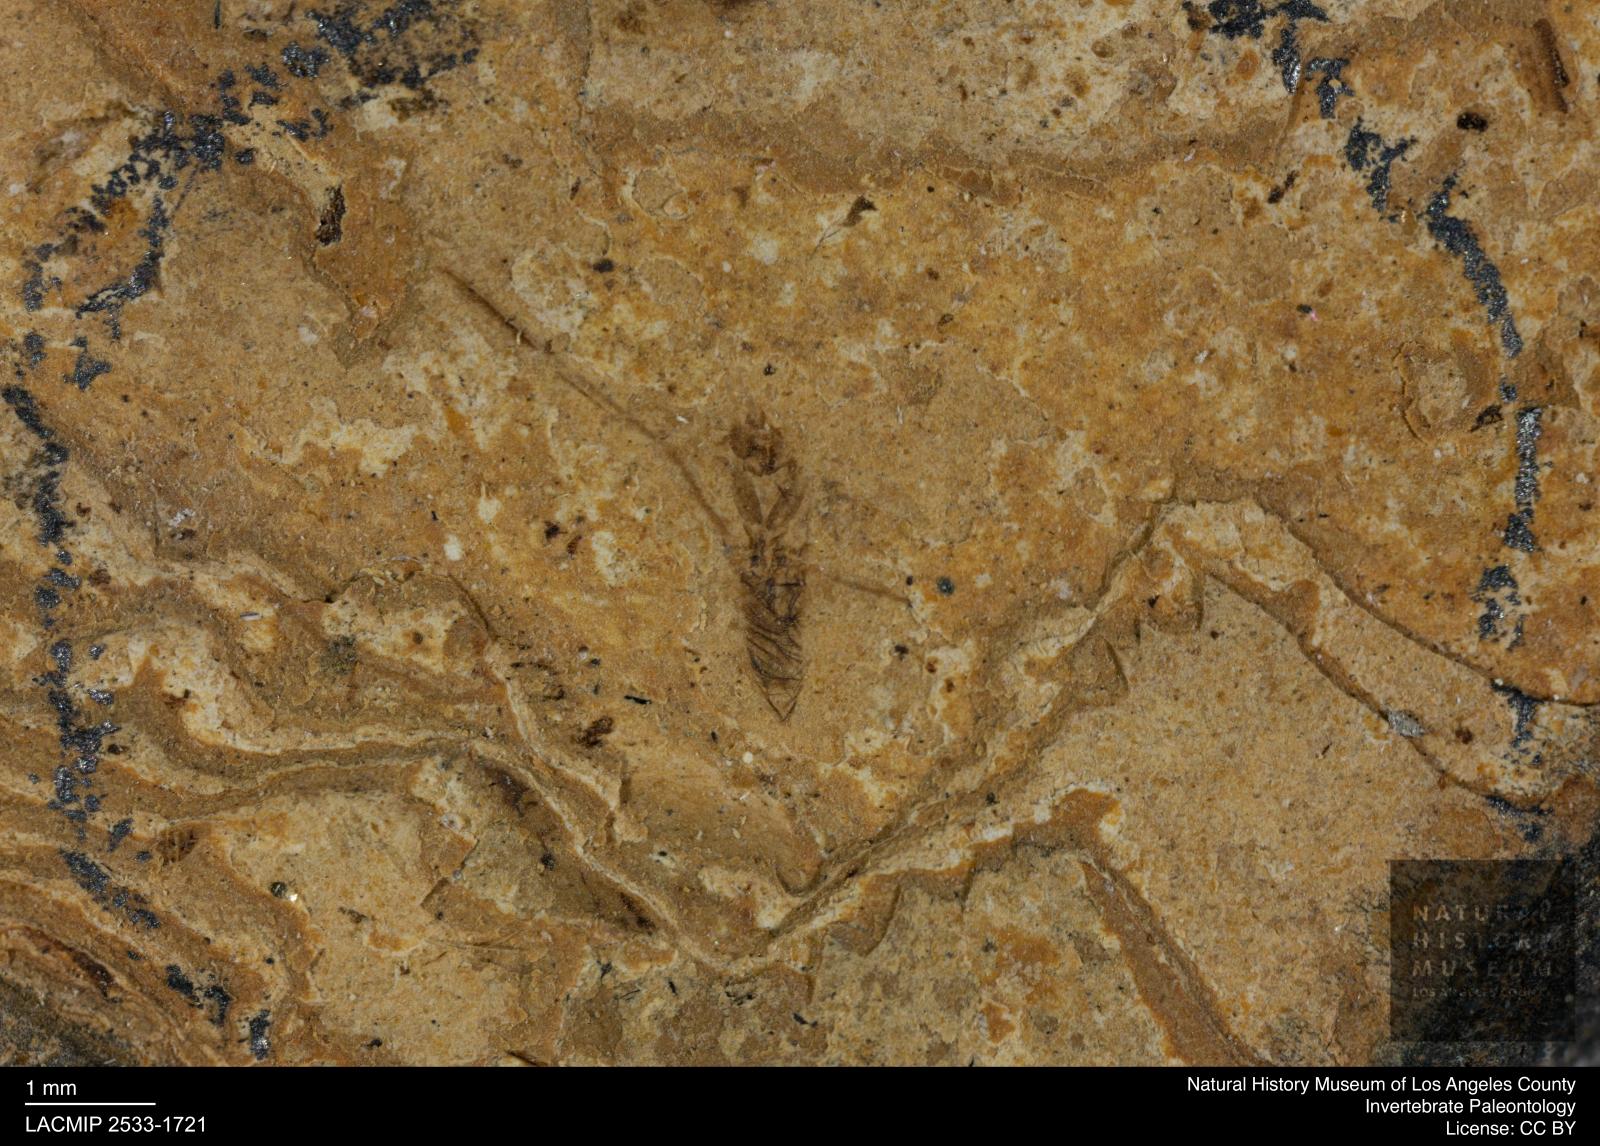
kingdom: Animalia
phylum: Arthropoda
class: Insecta
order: Hemiptera
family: Notonectidae
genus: Notonecta
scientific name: Notonecta
